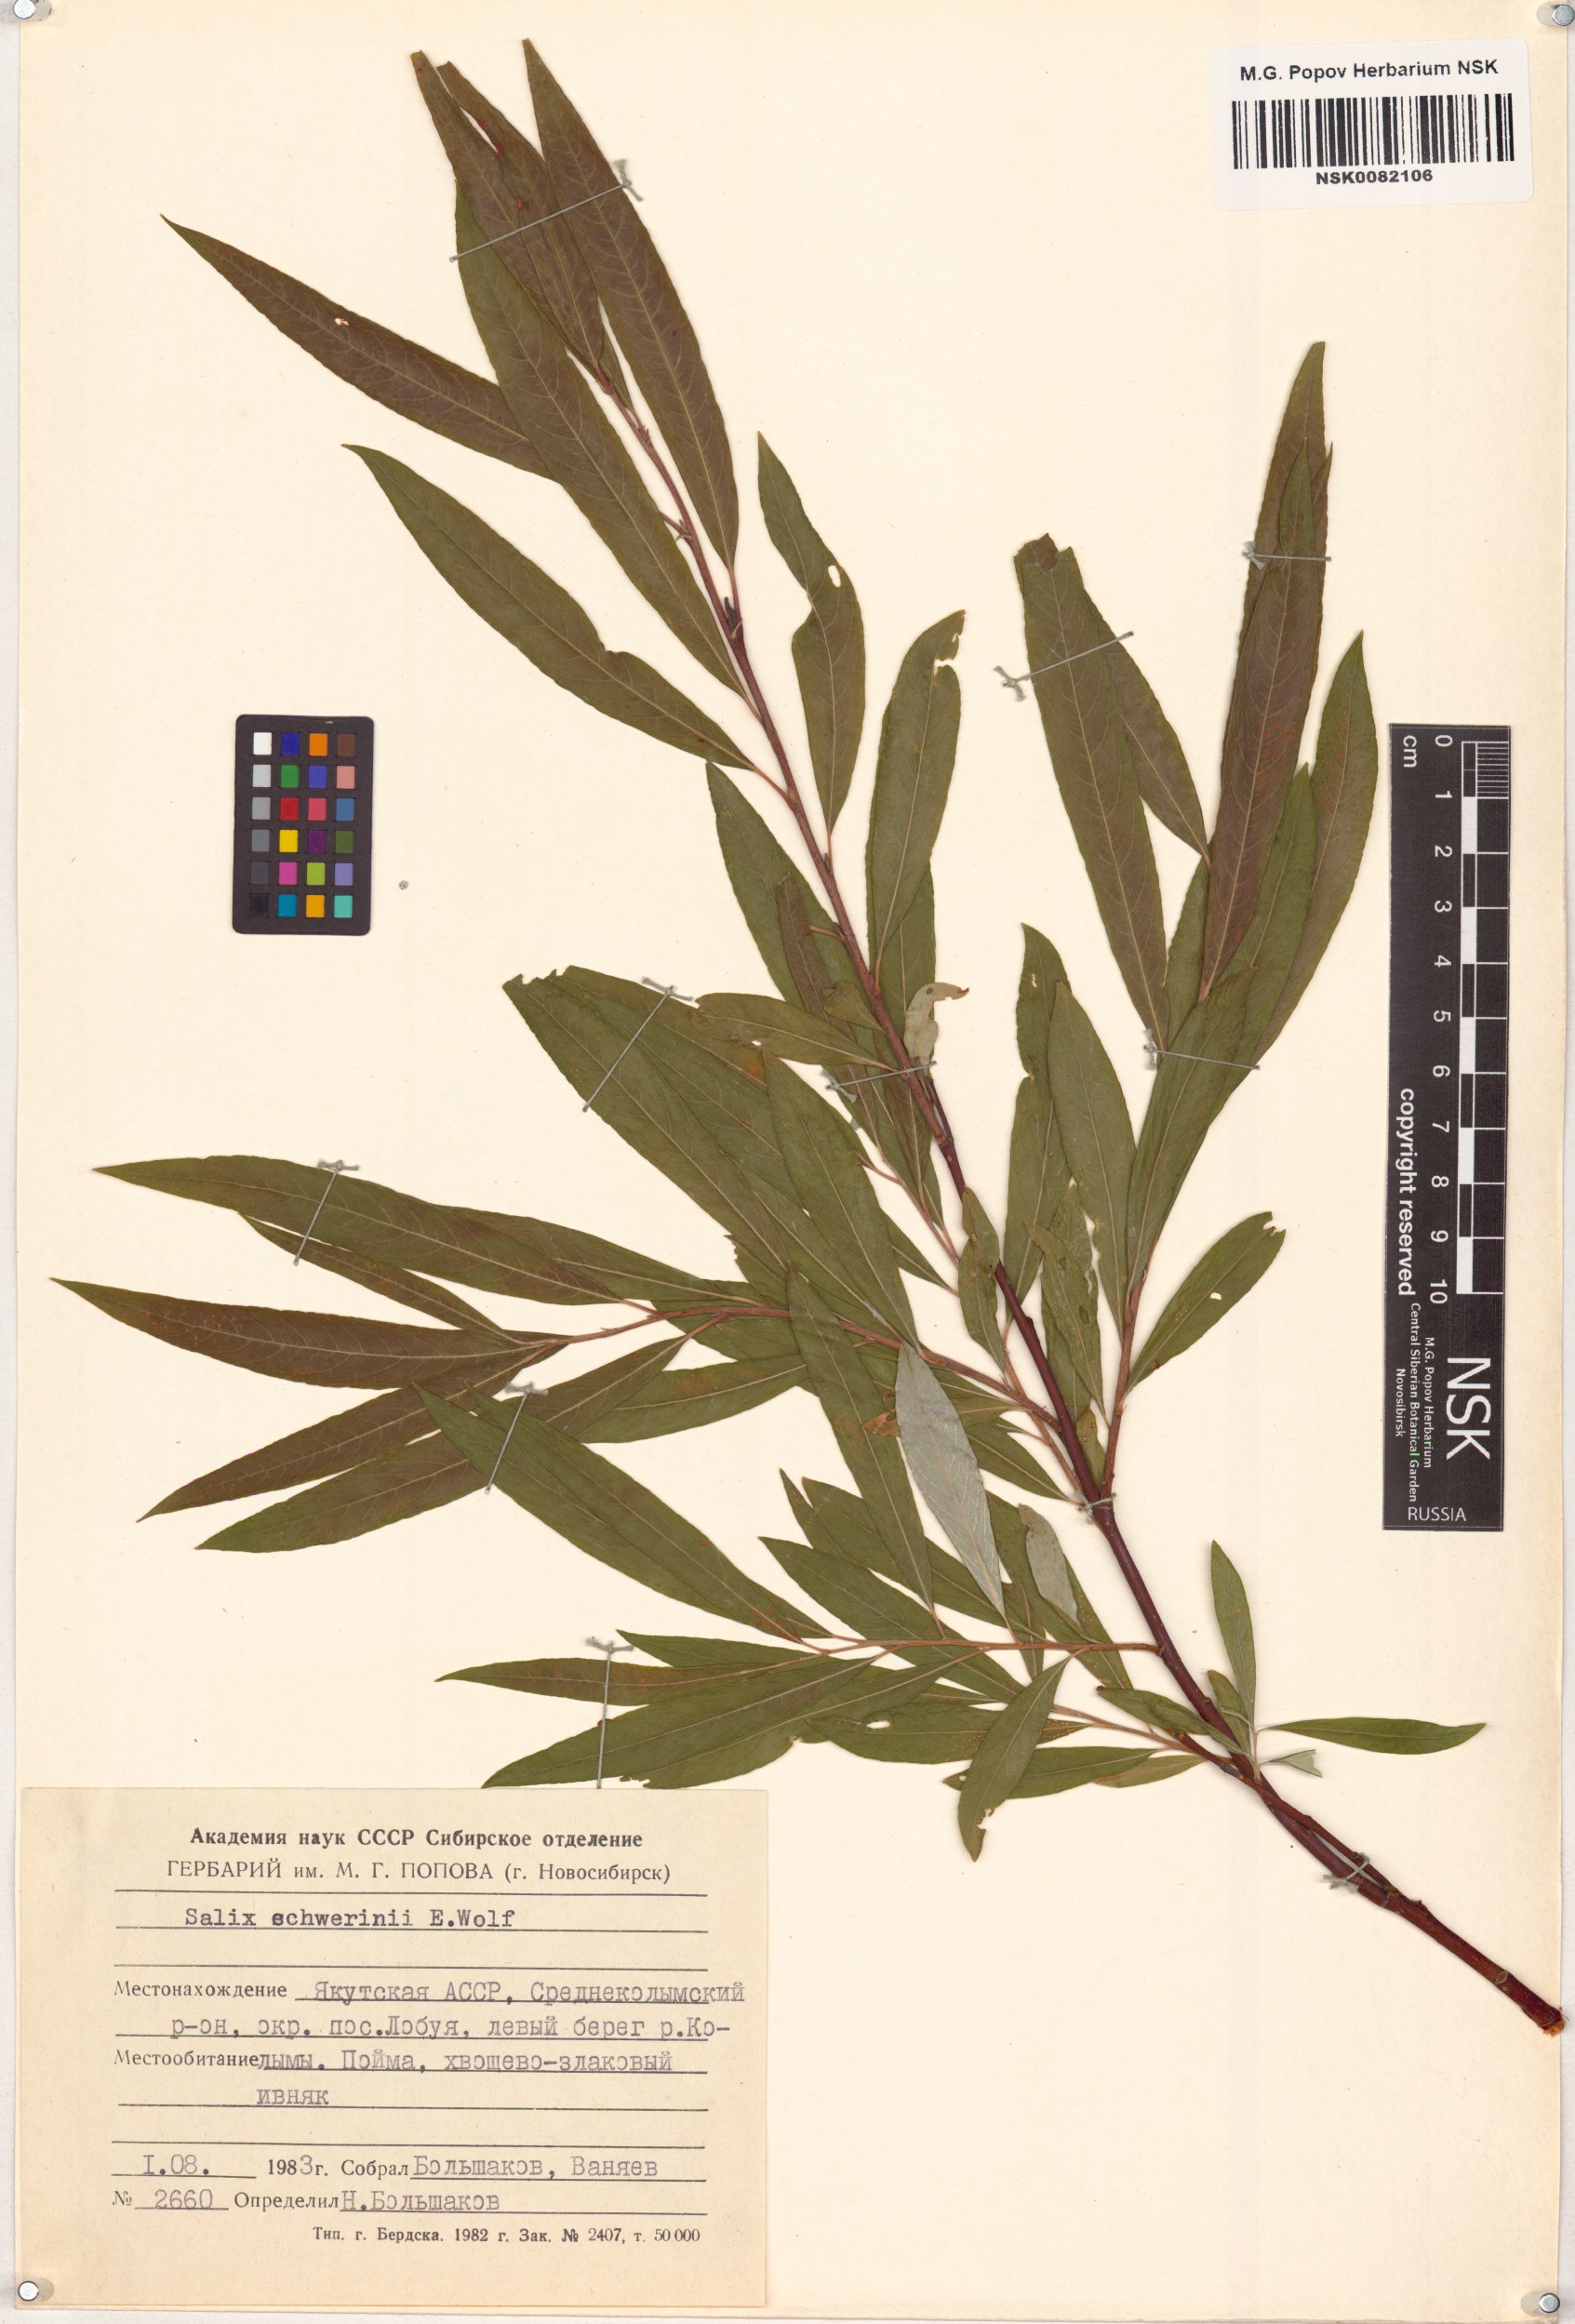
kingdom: Plantae
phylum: Tracheophyta
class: Magnoliopsida
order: Malpighiales
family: Salicaceae
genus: Salix
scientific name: Salix schwerinii
